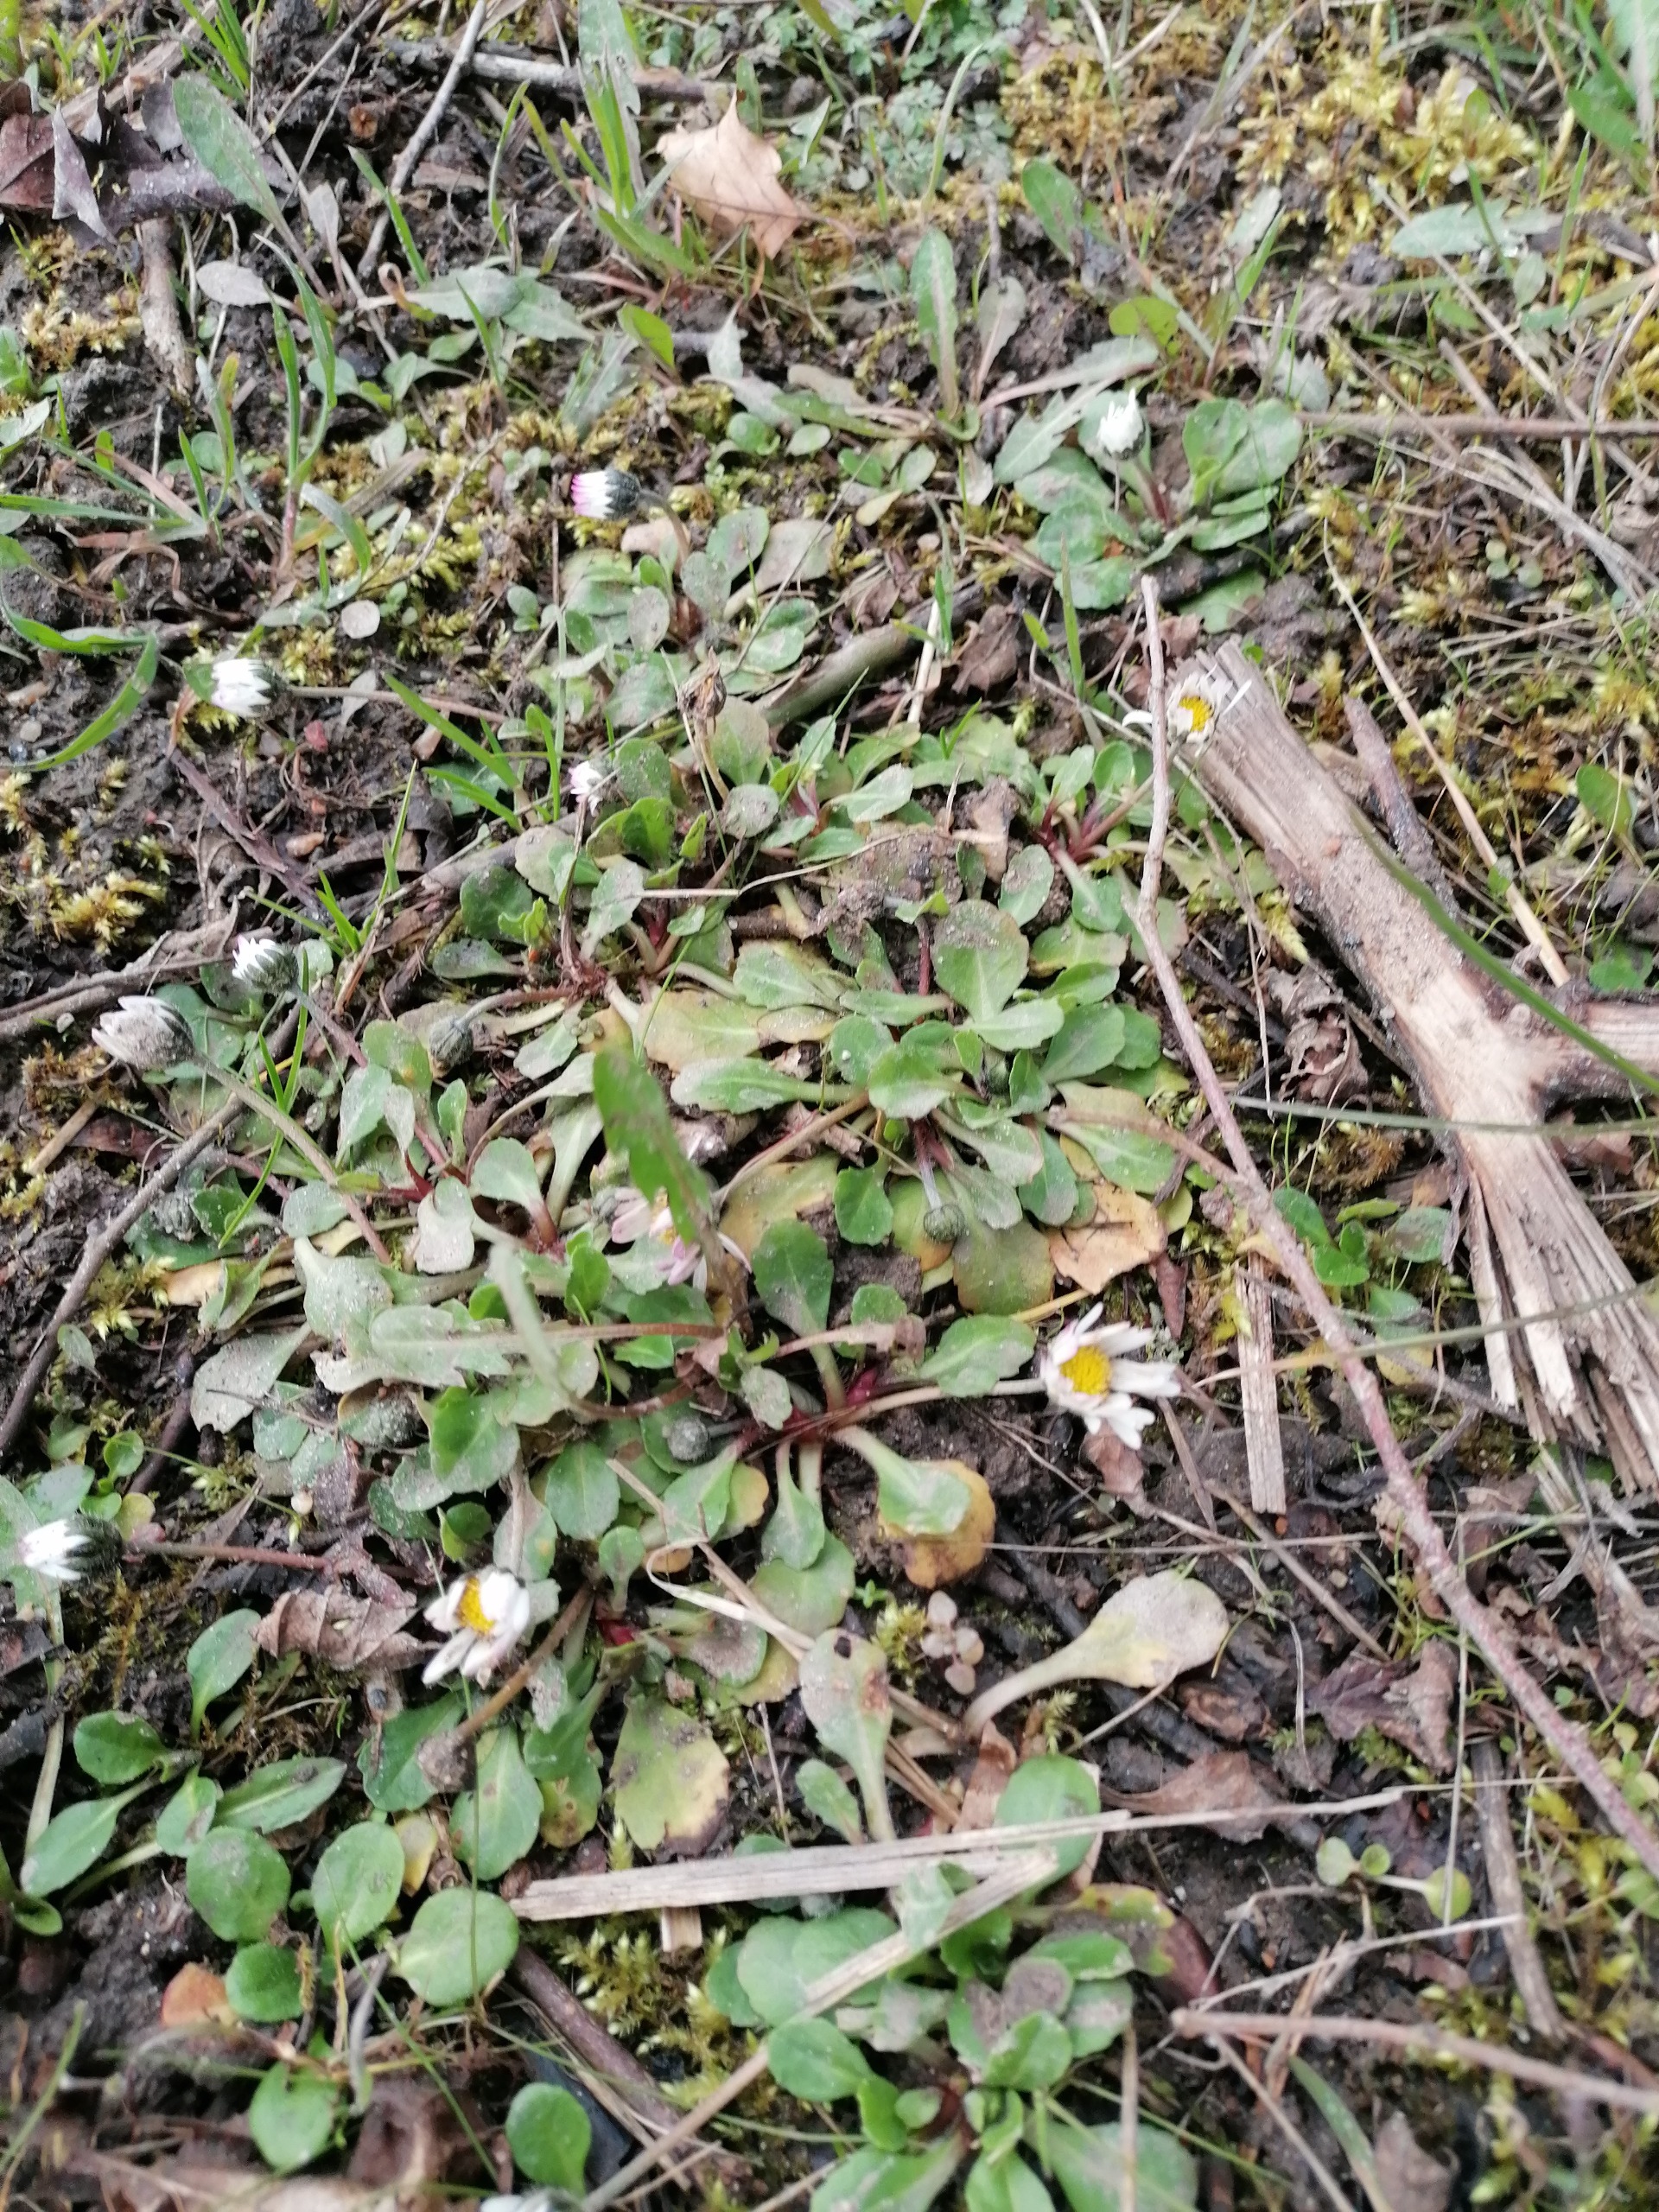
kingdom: Plantae
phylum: Tracheophyta
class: Magnoliopsida
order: Asterales
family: Asteraceae
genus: Bellis
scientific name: Bellis perennis
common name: Tusindfryd
